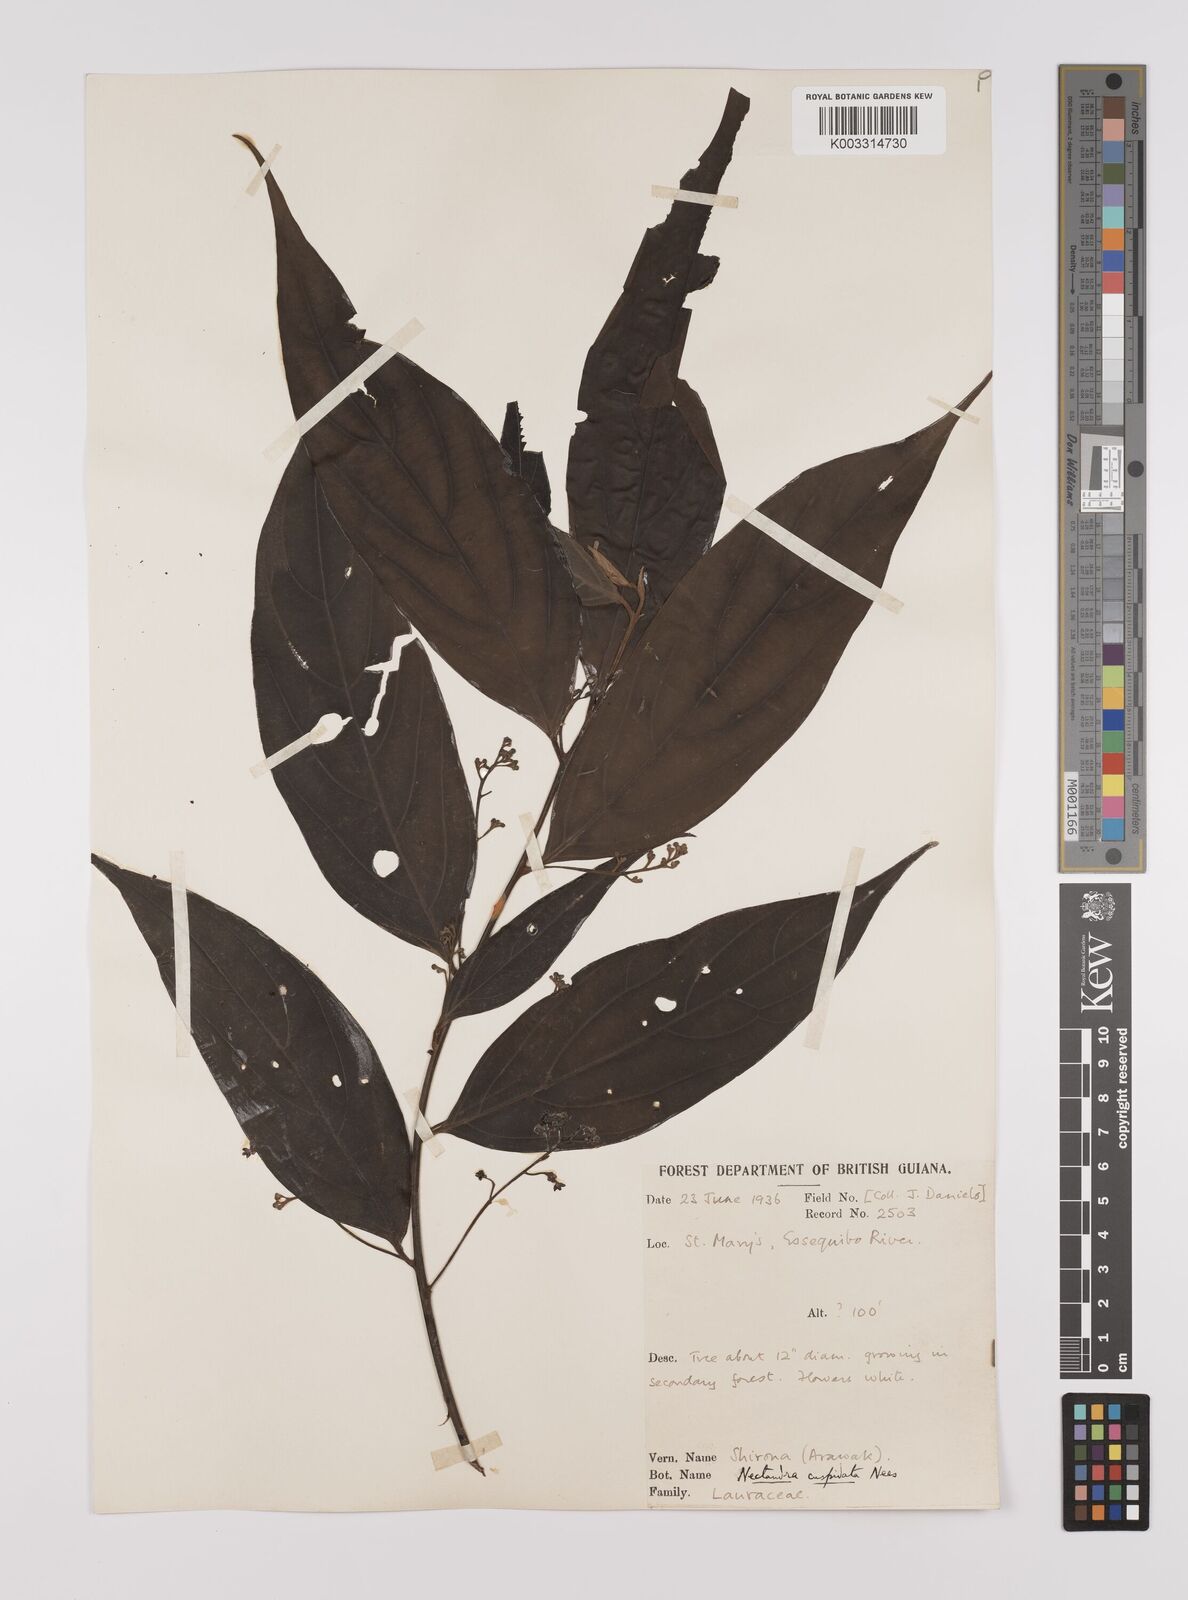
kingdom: Plantae
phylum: Tracheophyta
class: Magnoliopsida
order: Laurales
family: Lauraceae
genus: Nectandra
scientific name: Nectandra cuspidata
